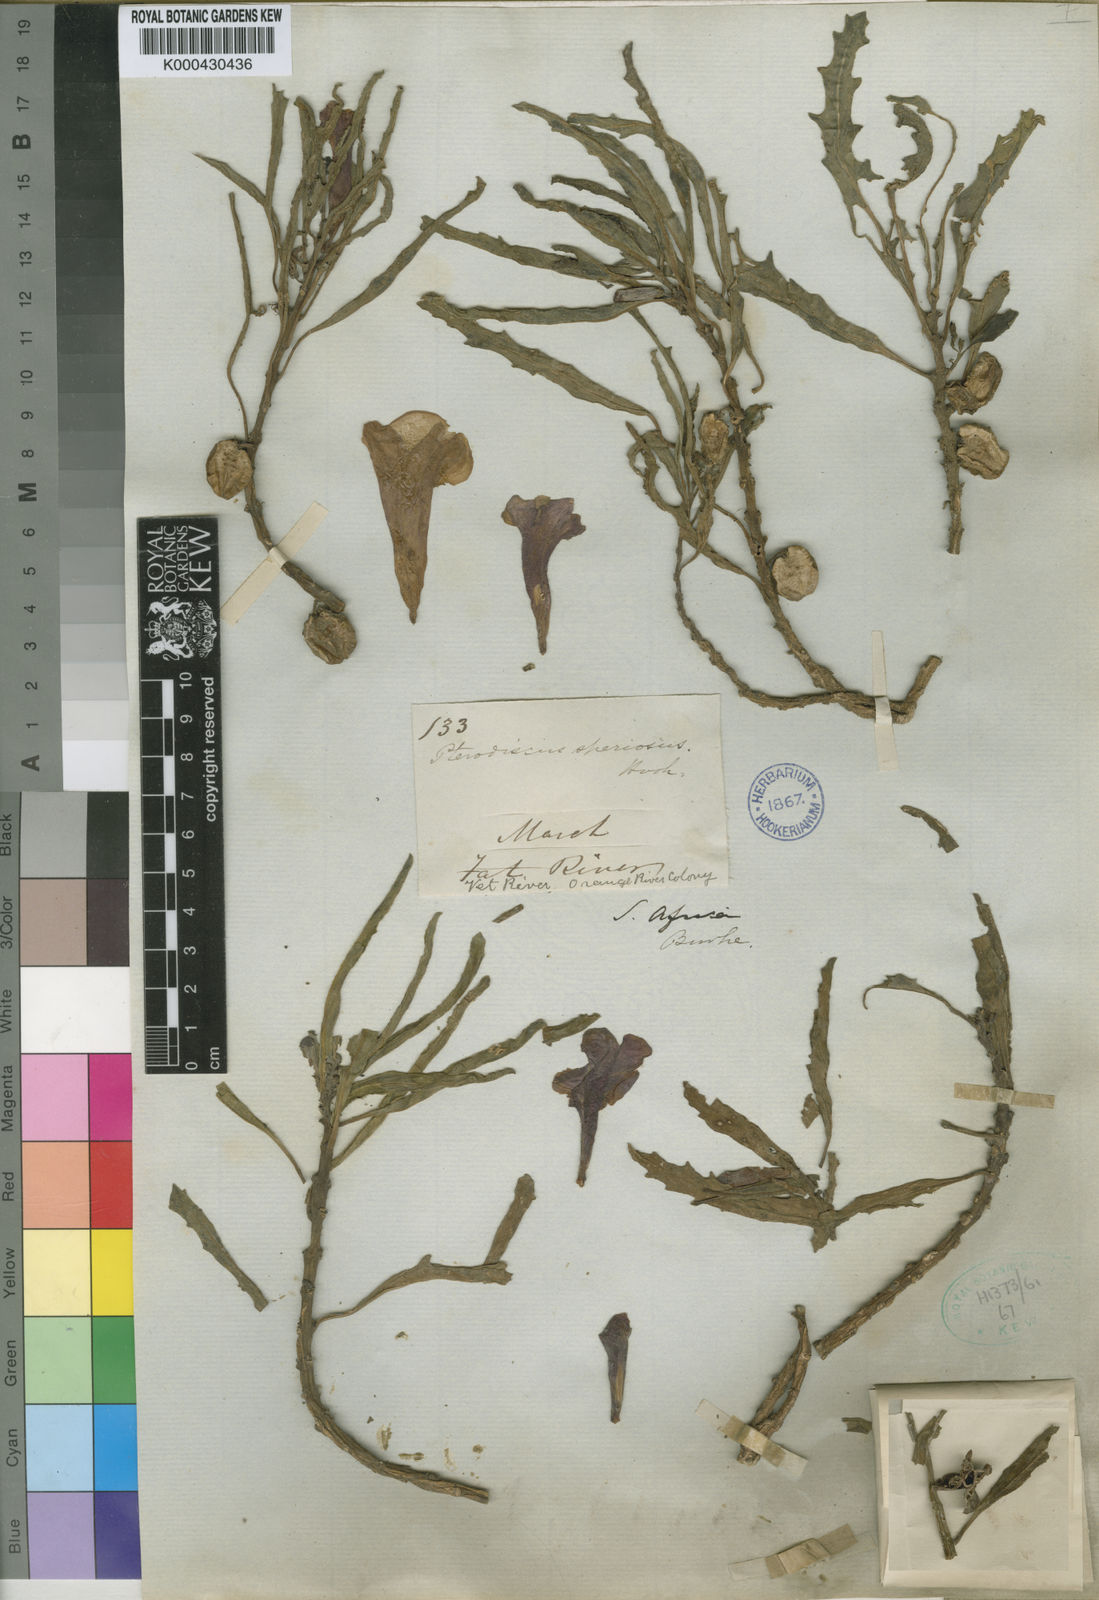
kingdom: Plantae
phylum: Tracheophyta
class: Magnoliopsida
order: Lamiales
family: Pedaliaceae
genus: Pterodiscus
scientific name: Pterodiscus speciosus
